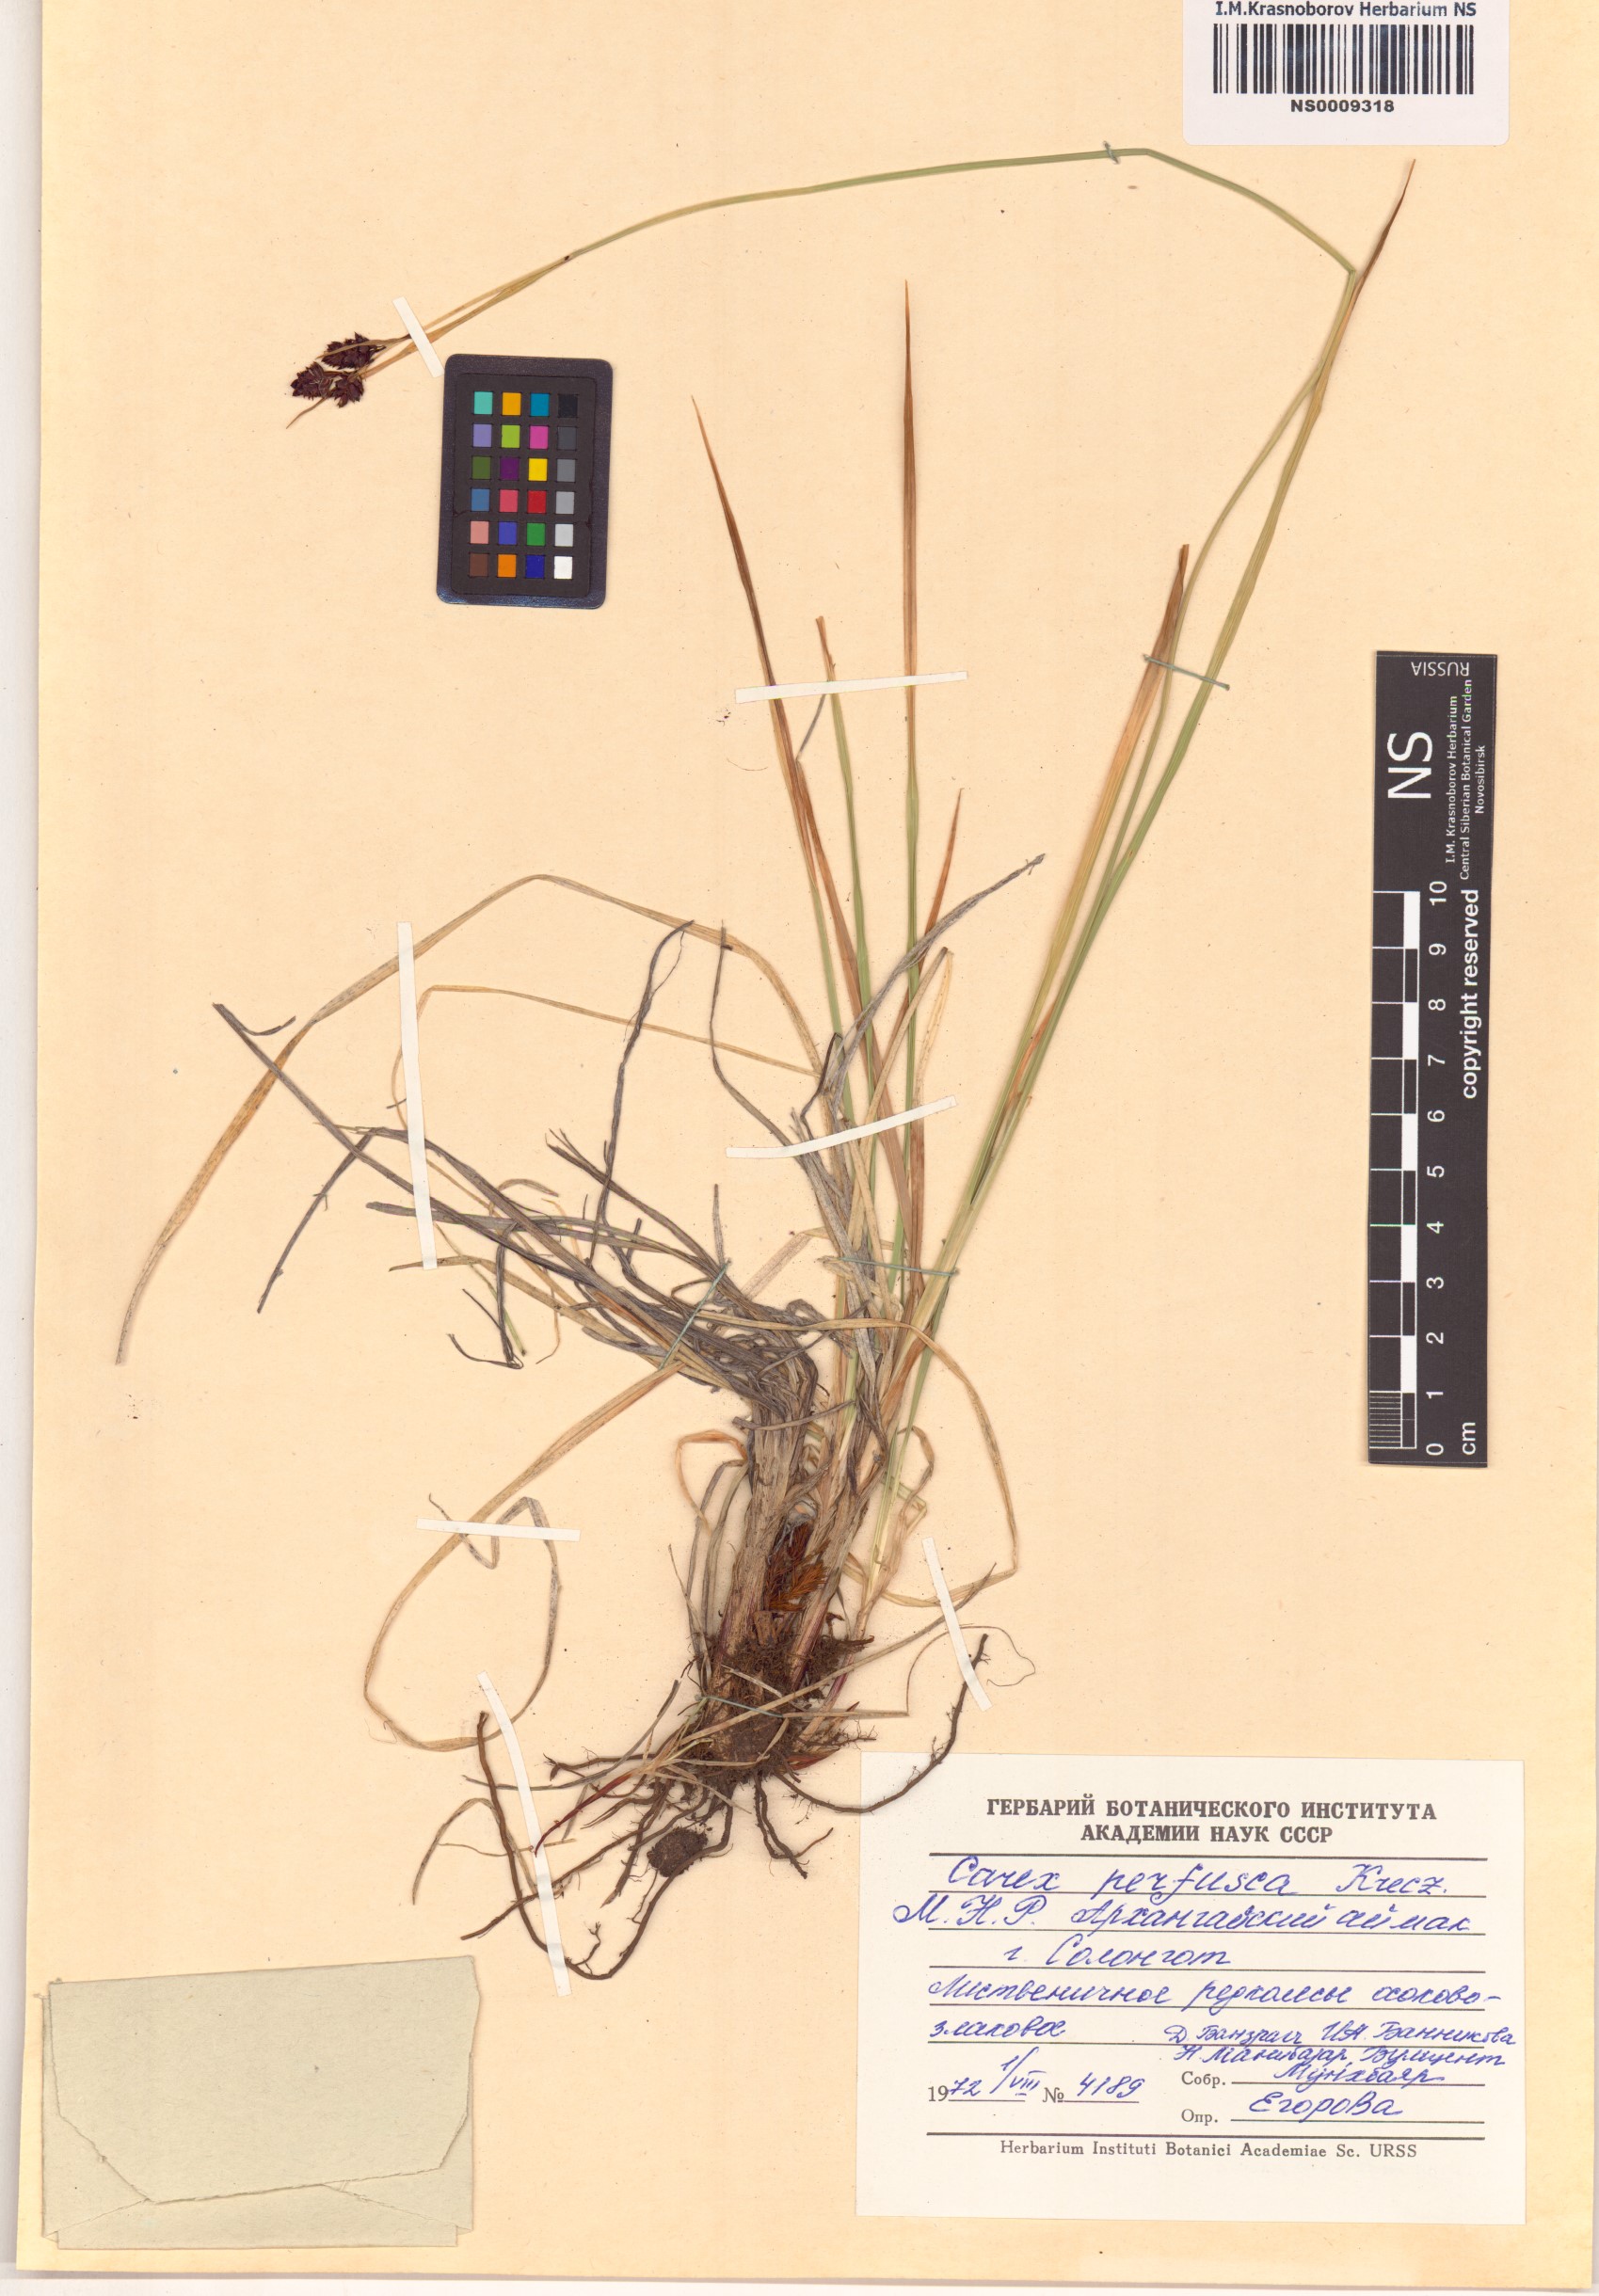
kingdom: Plantae
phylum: Tracheophyta
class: Liliopsida
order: Poales
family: Cyperaceae
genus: Carex
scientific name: Carex aterrima
